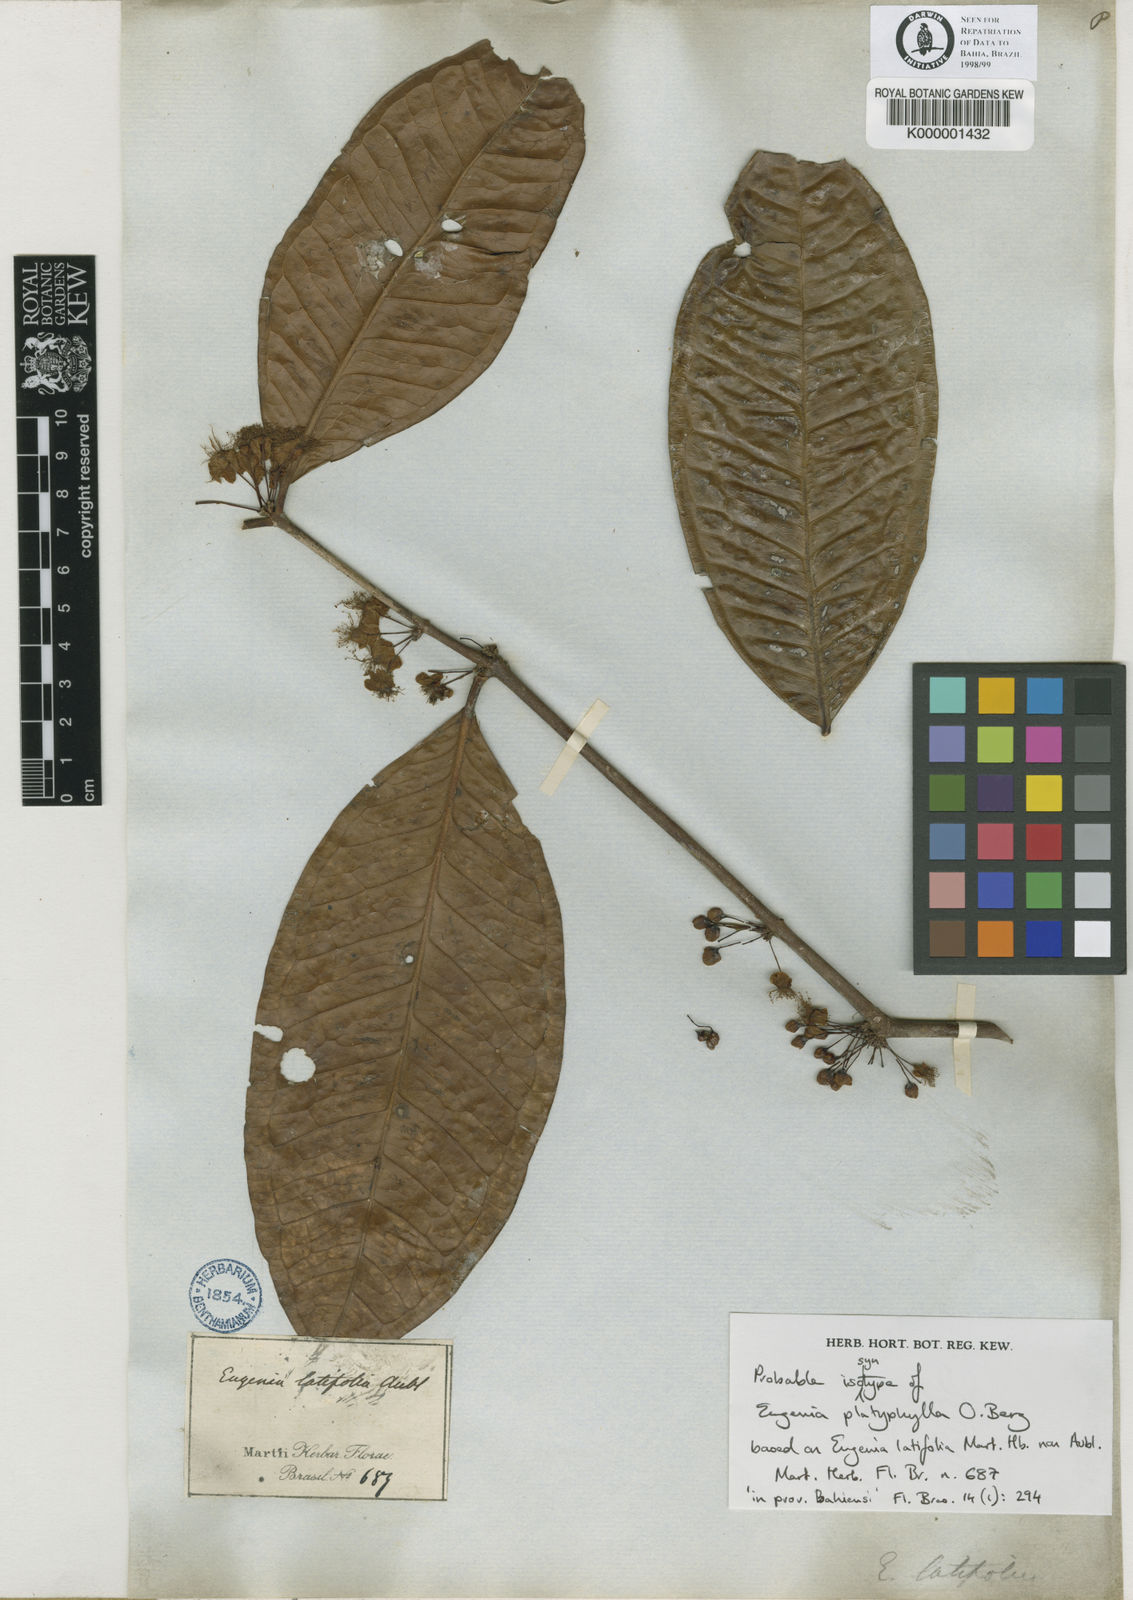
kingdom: Plantae
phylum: Tracheophyta
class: Magnoliopsida
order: Myrtales
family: Myrtaceae
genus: Eugenia
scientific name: Eugenia platyphylla
